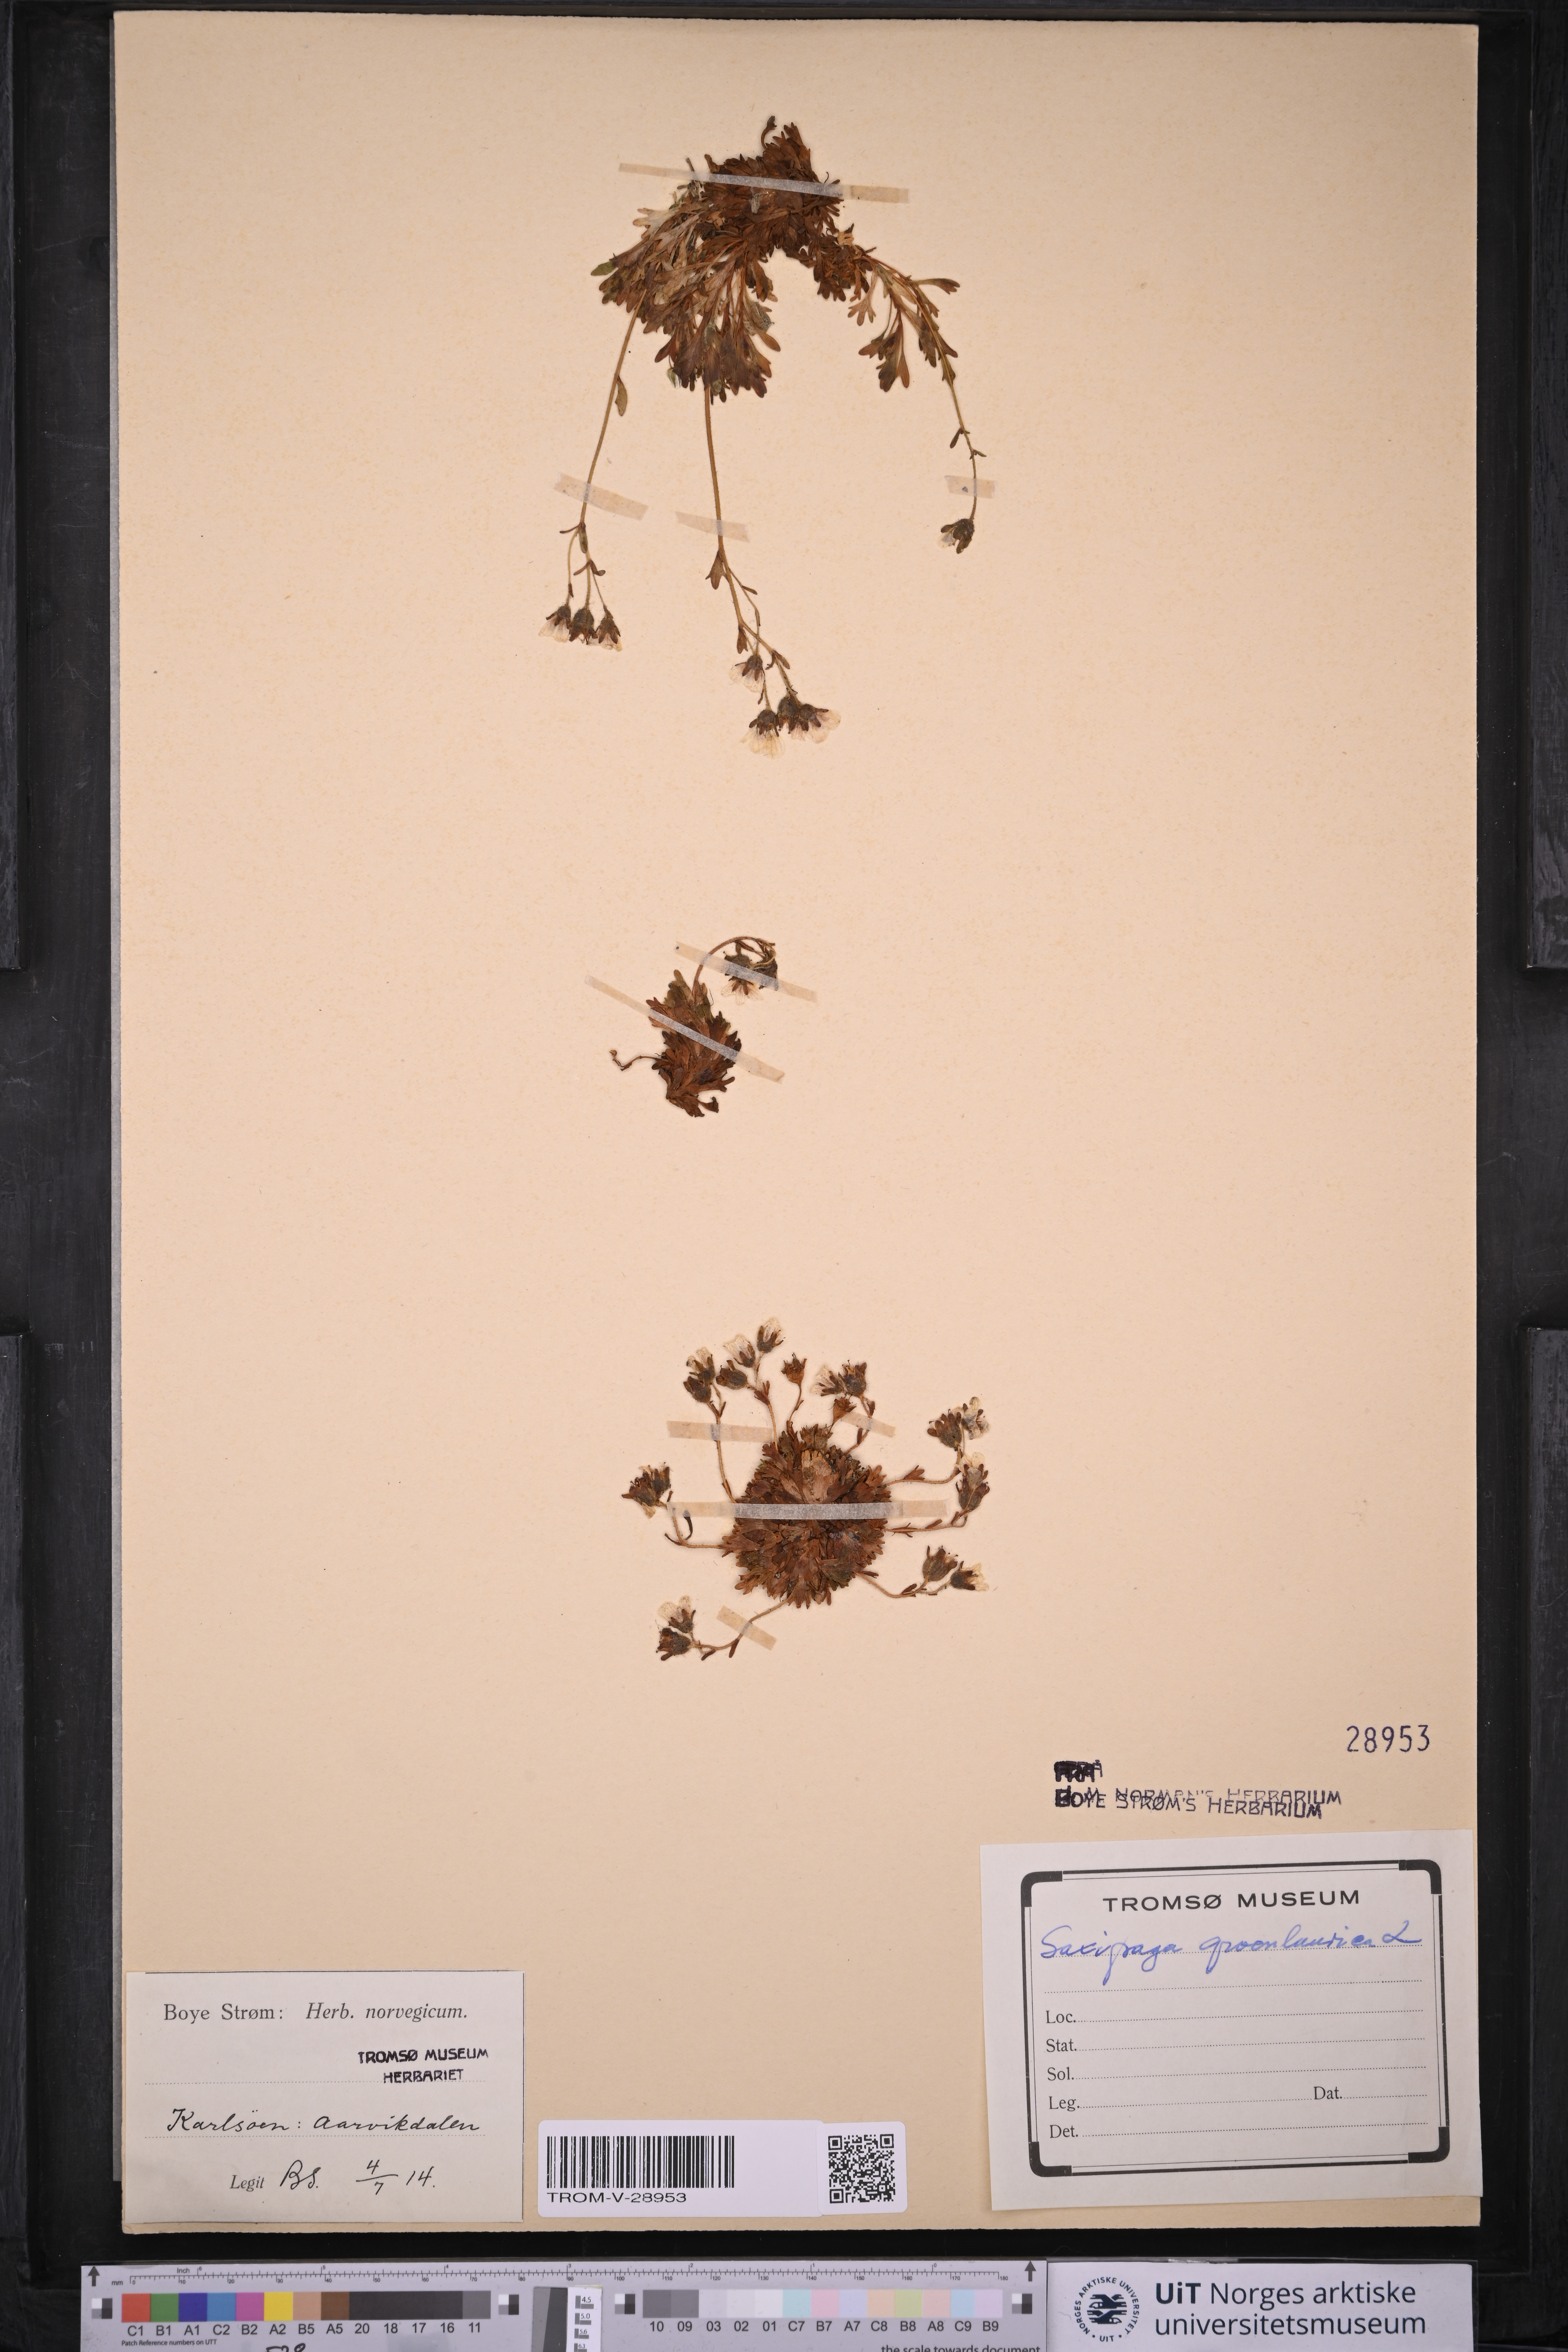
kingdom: Plantae
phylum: Tracheophyta
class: Magnoliopsida
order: Saxifragales
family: Saxifragaceae
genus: Saxifraga
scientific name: Saxifraga cespitosa
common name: Tufted saxifrage
